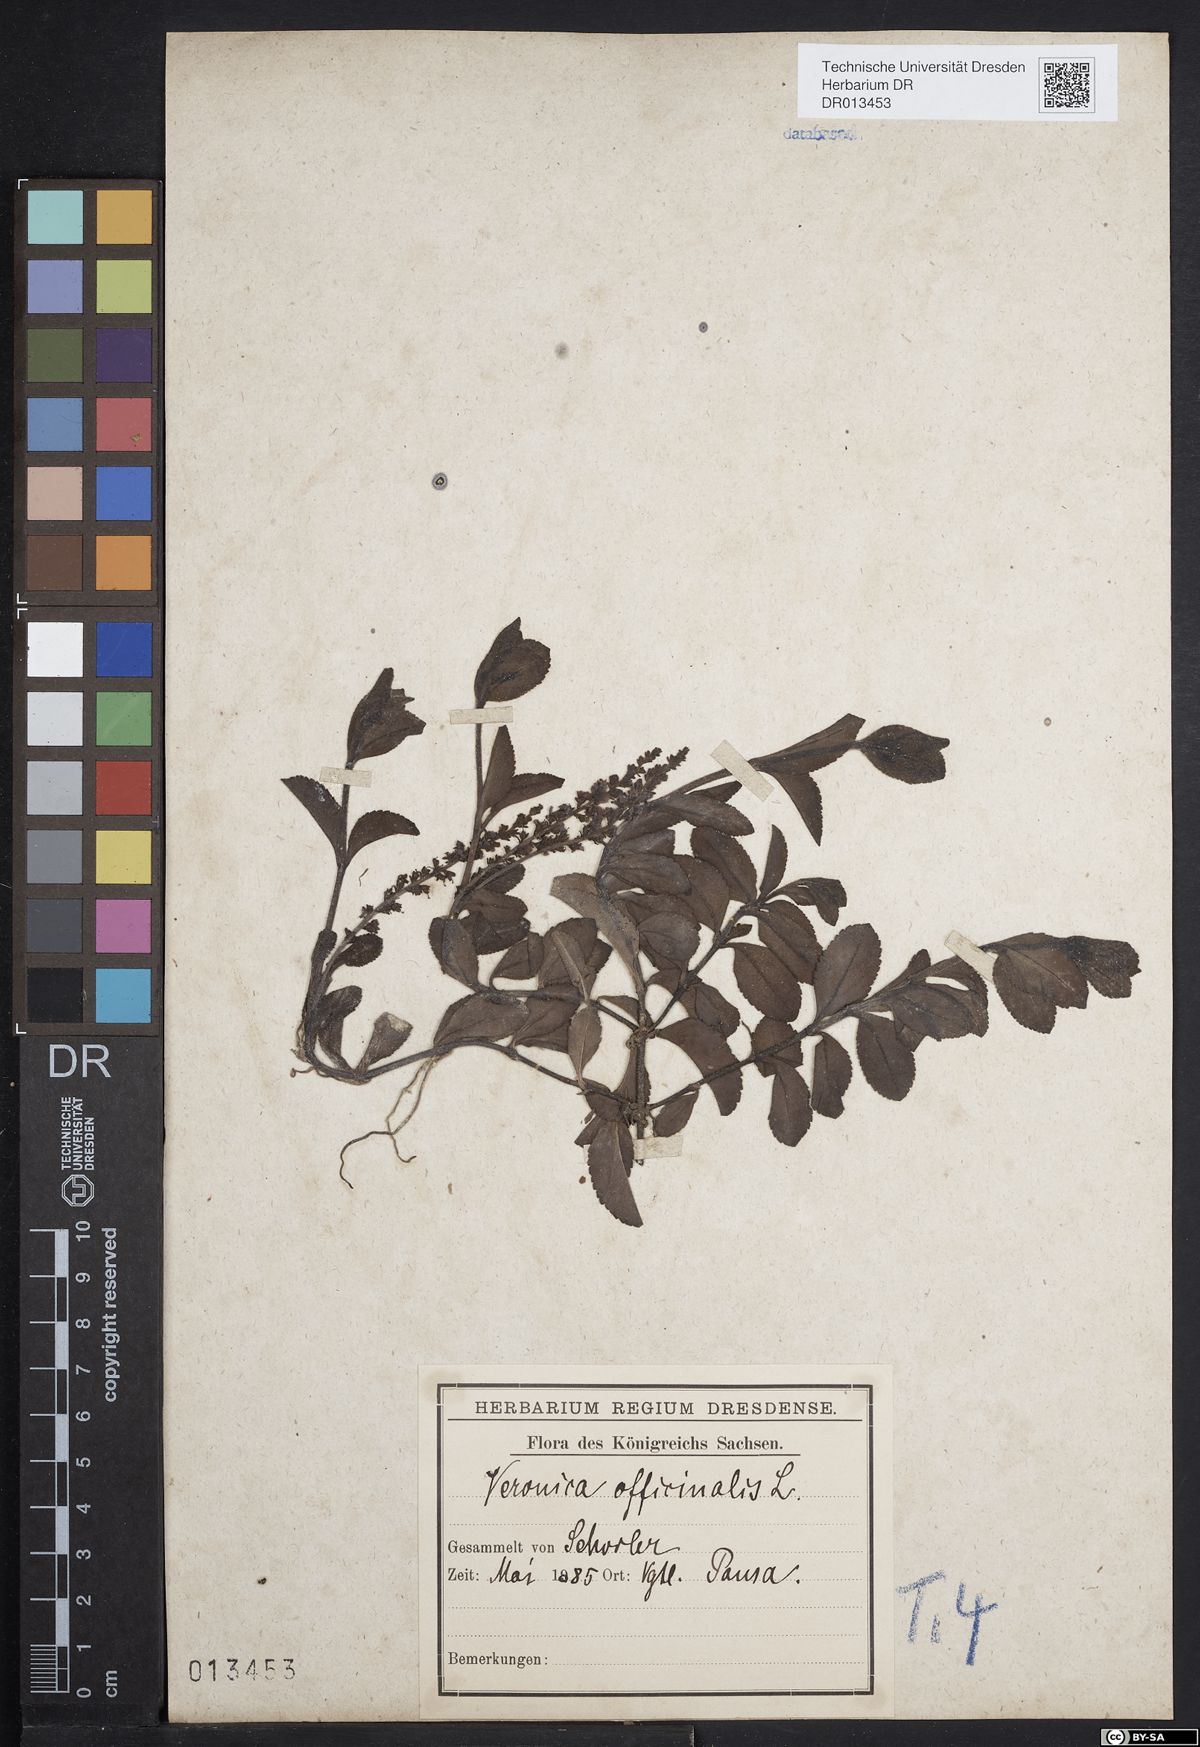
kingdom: Plantae
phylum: Tracheophyta
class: Magnoliopsida
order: Lamiales
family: Plantaginaceae
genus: Veronica
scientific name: Veronica officinalis
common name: Common speedwell
